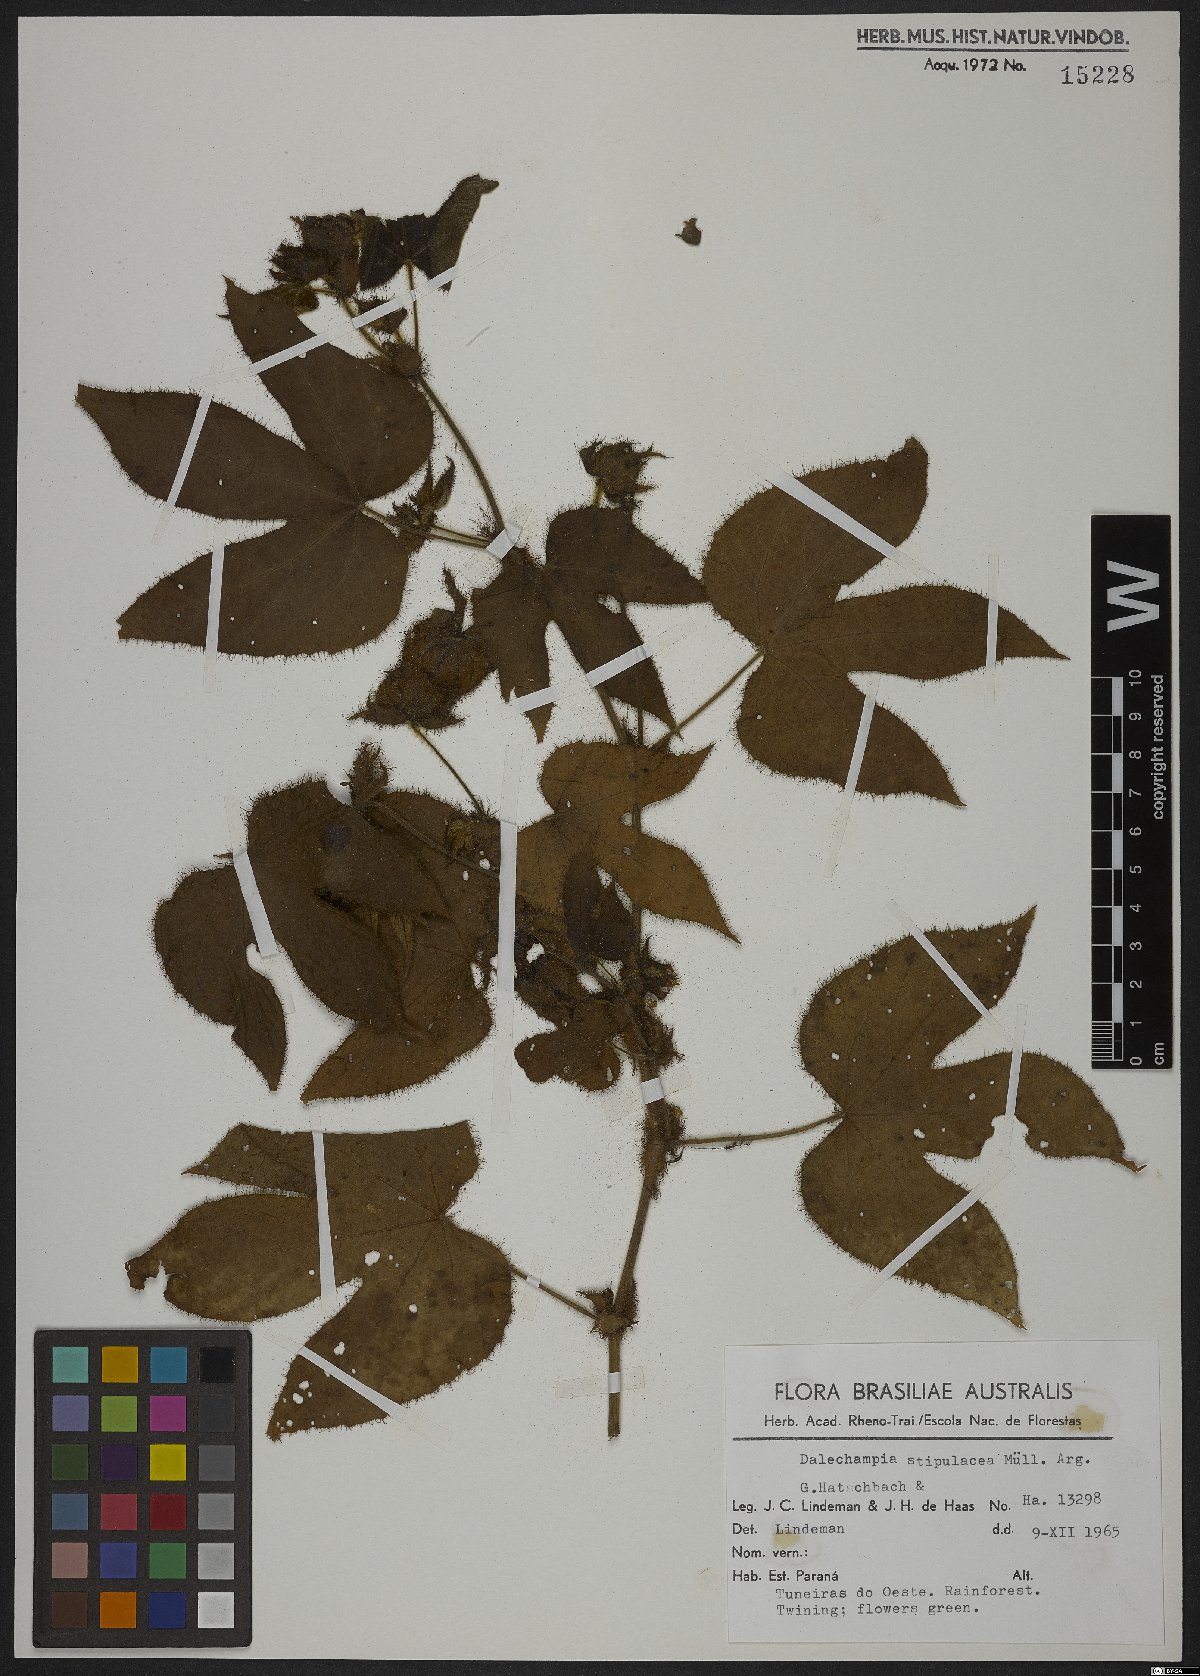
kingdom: Plantae
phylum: Tracheophyta
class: Magnoliopsida
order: Malpighiales
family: Euphorbiaceae
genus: Dalechampia
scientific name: Dalechampia stipulacea
